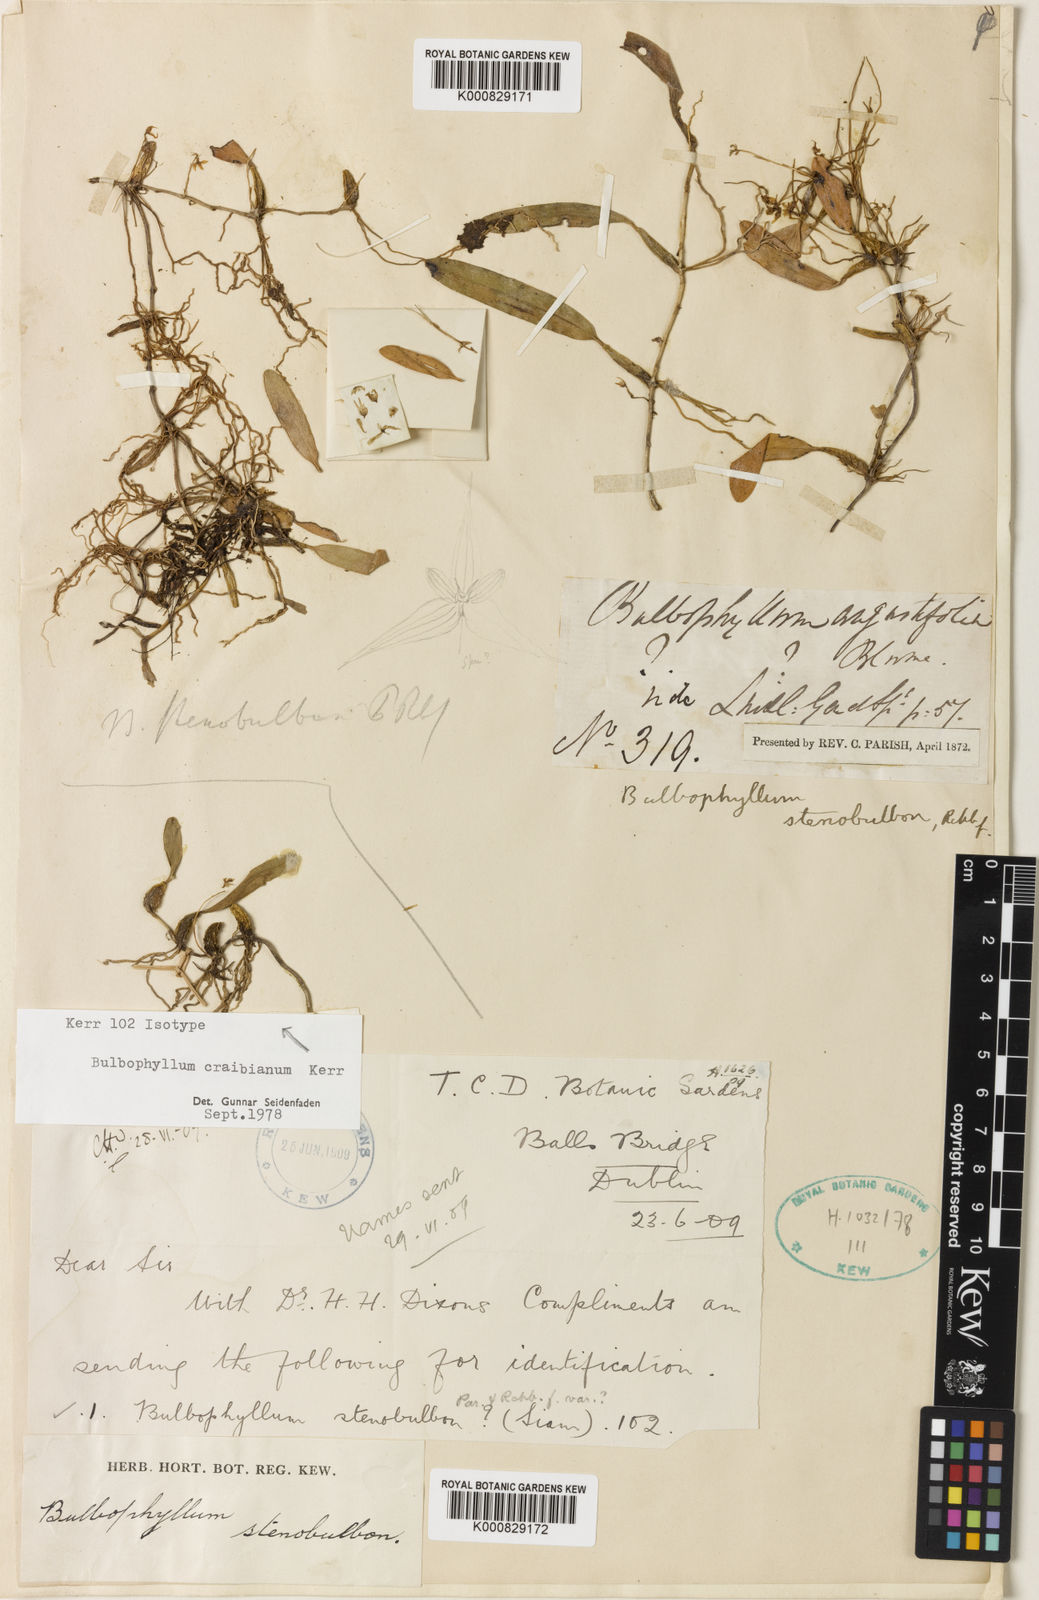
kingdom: Plantae
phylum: Tracheophyta
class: Liliopsida
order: Asparagales
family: Orchidaceae
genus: Bulbophyllum
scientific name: Bulbophyllum stenobulbon
